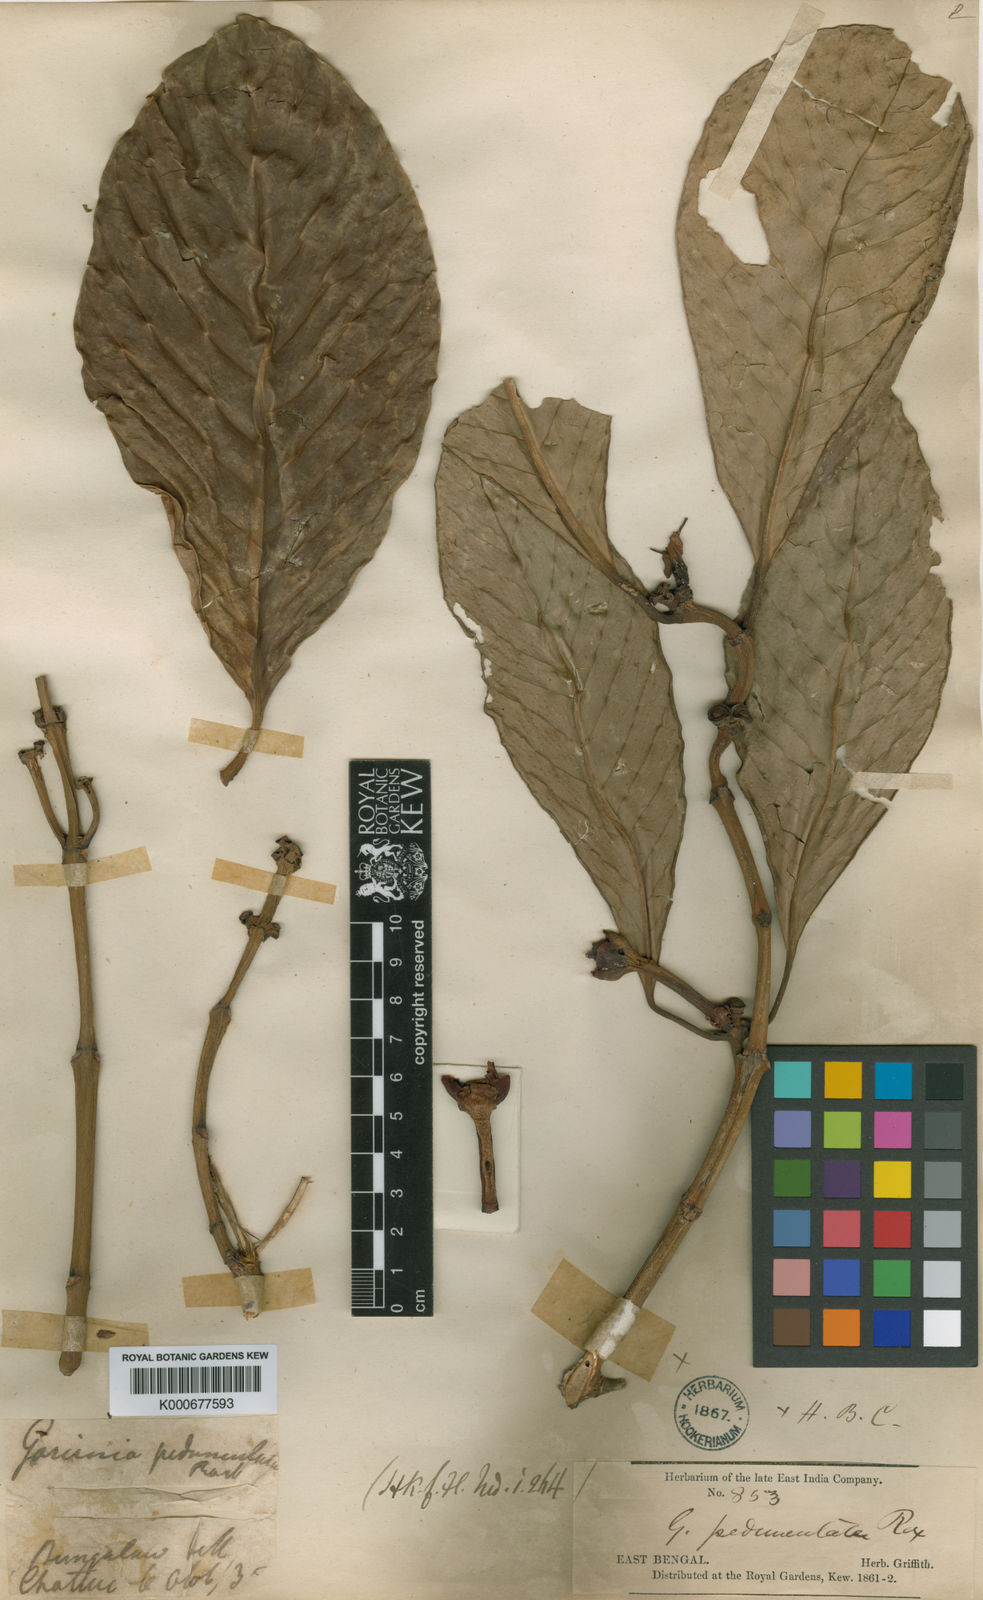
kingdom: Plantae
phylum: Tracheophyta
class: Magnoliopsida
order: Malpighiales
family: Clusiaceae
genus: Garcinia
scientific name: Garcinia
